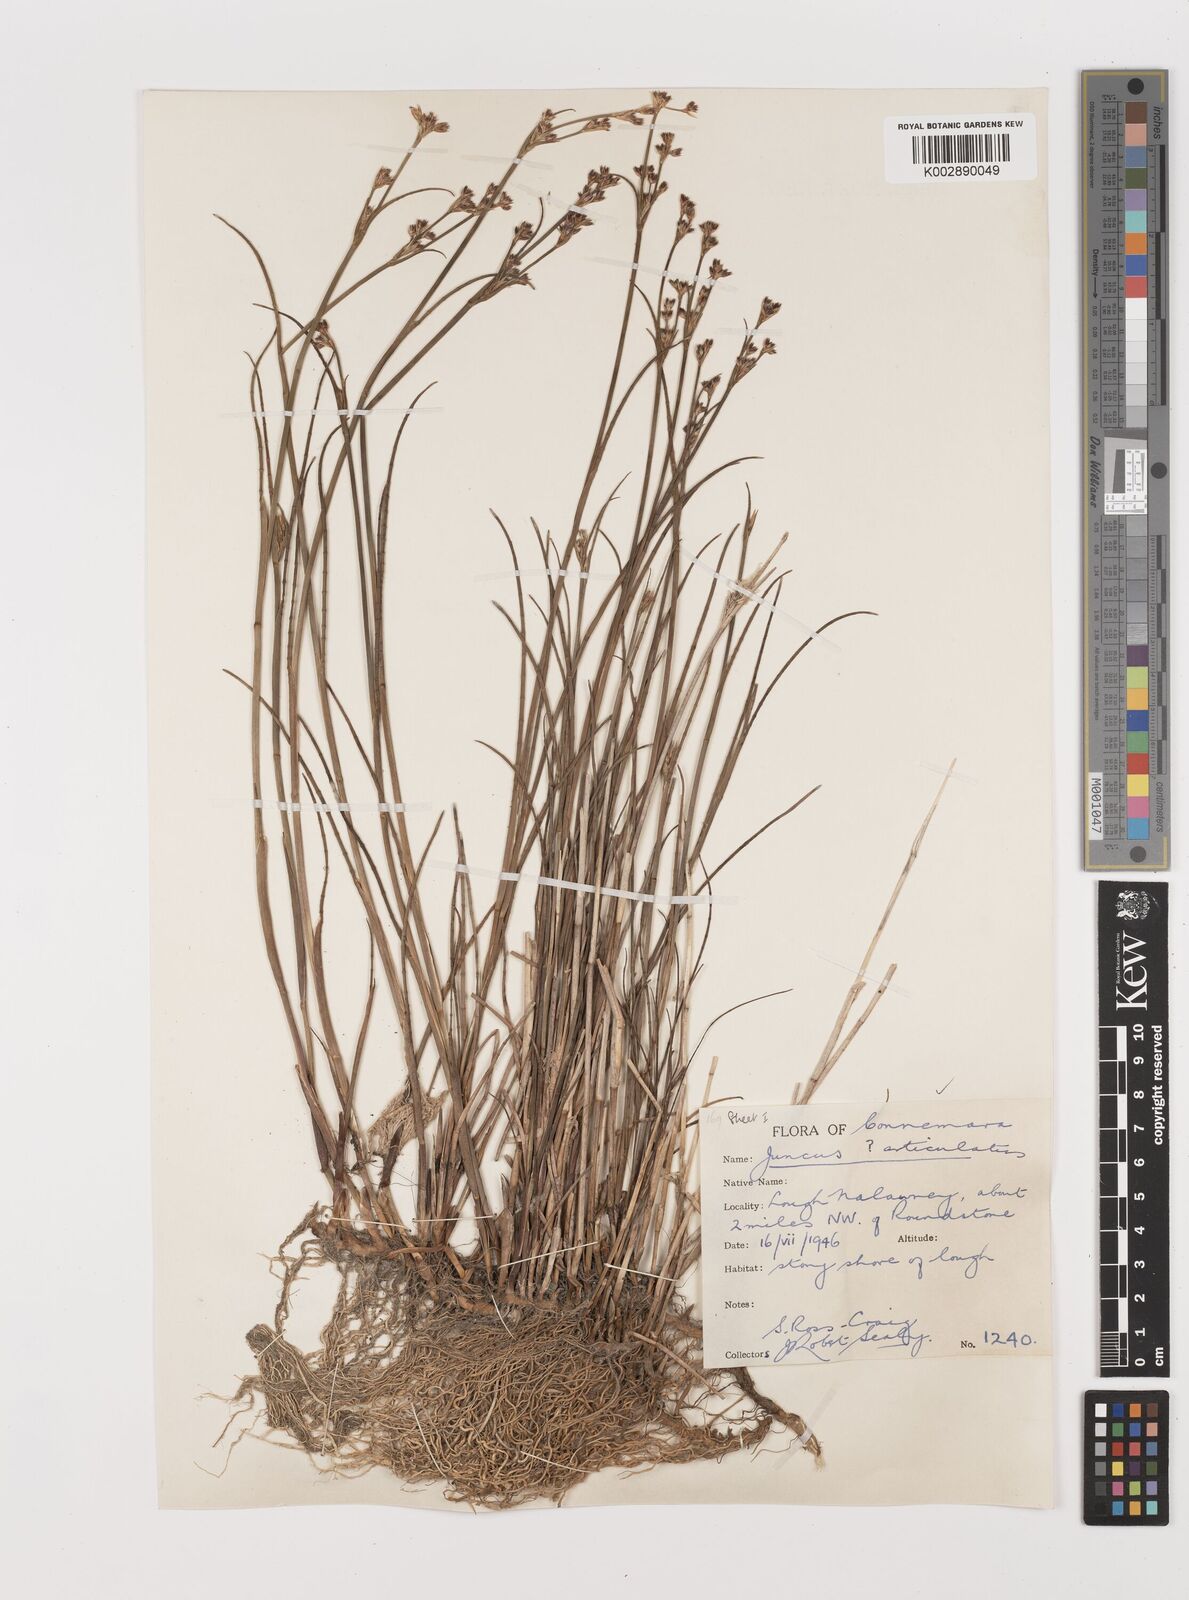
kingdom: Plantae
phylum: Tracheophyta
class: Liliopsida
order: Poales
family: Juncaceae
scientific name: Juncaceae
